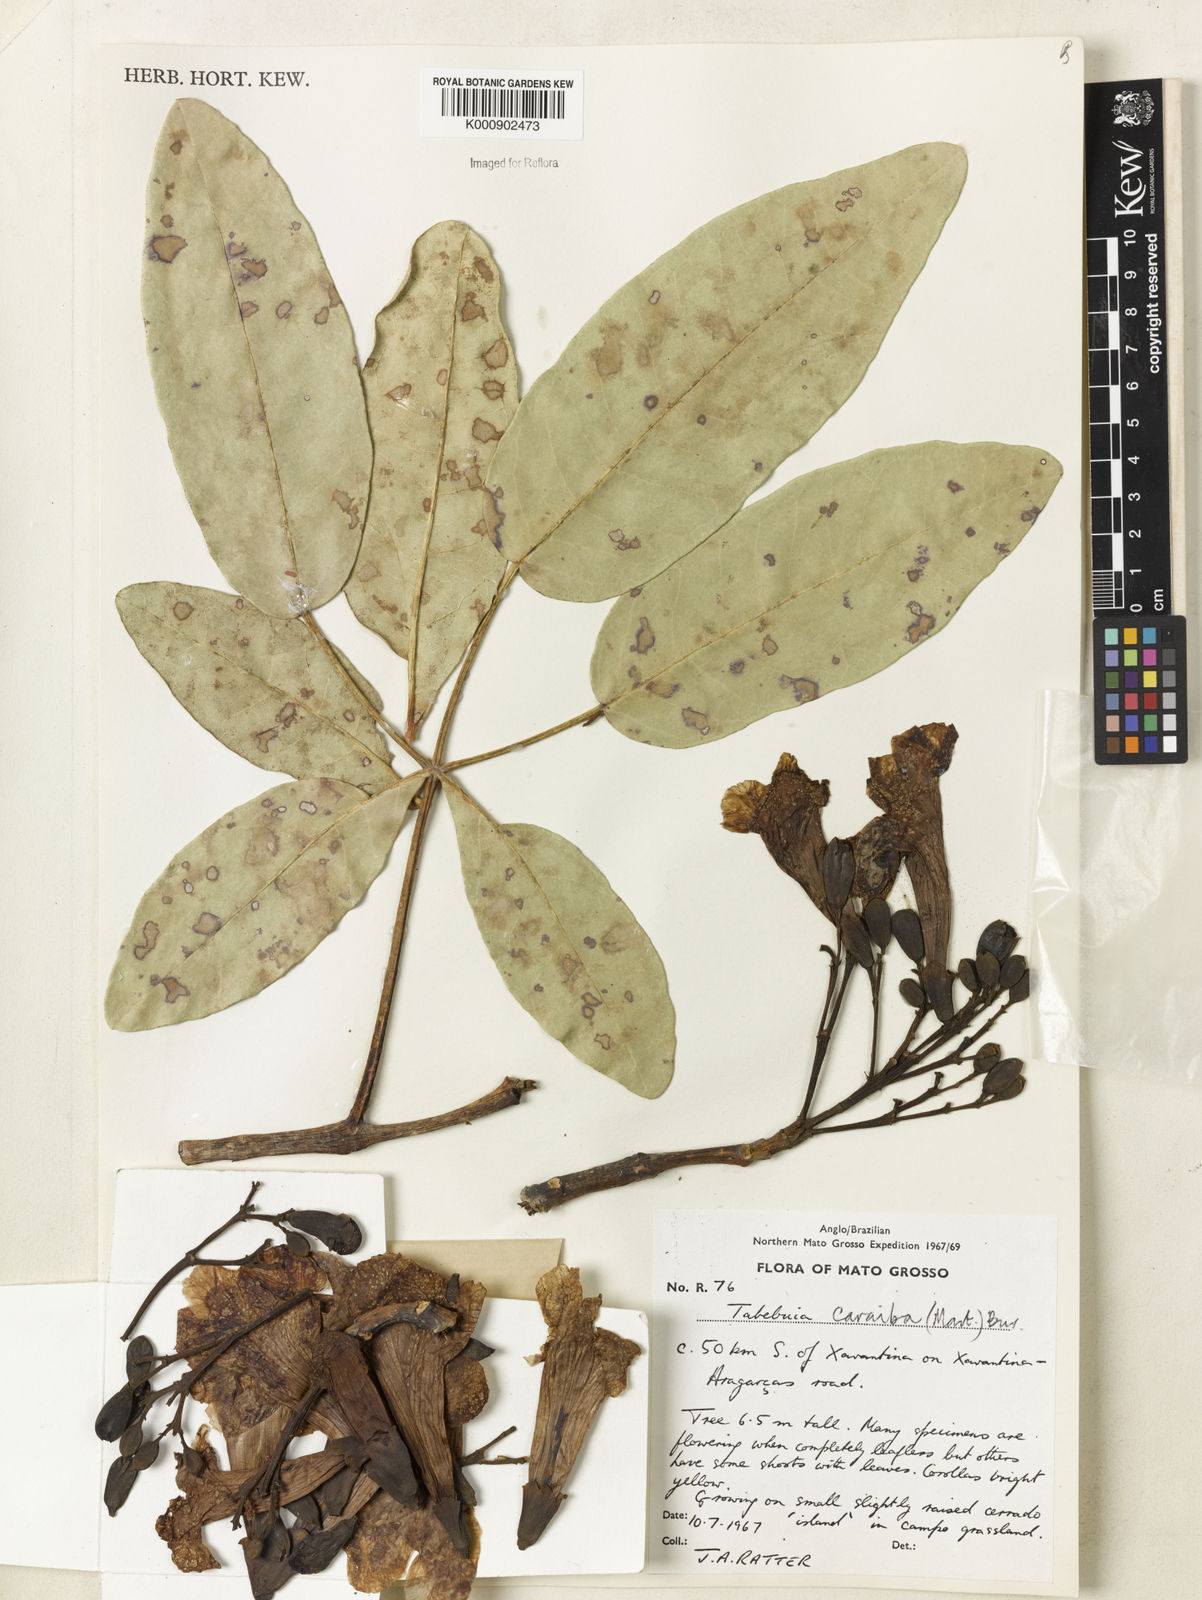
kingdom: Plantae
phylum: Tracheophyta
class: Magnoliopsida
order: Lamiales
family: Bignoniaceae
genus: Tabebuia
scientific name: Tabebuia aurea
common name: Caribbean trumpet-tree
